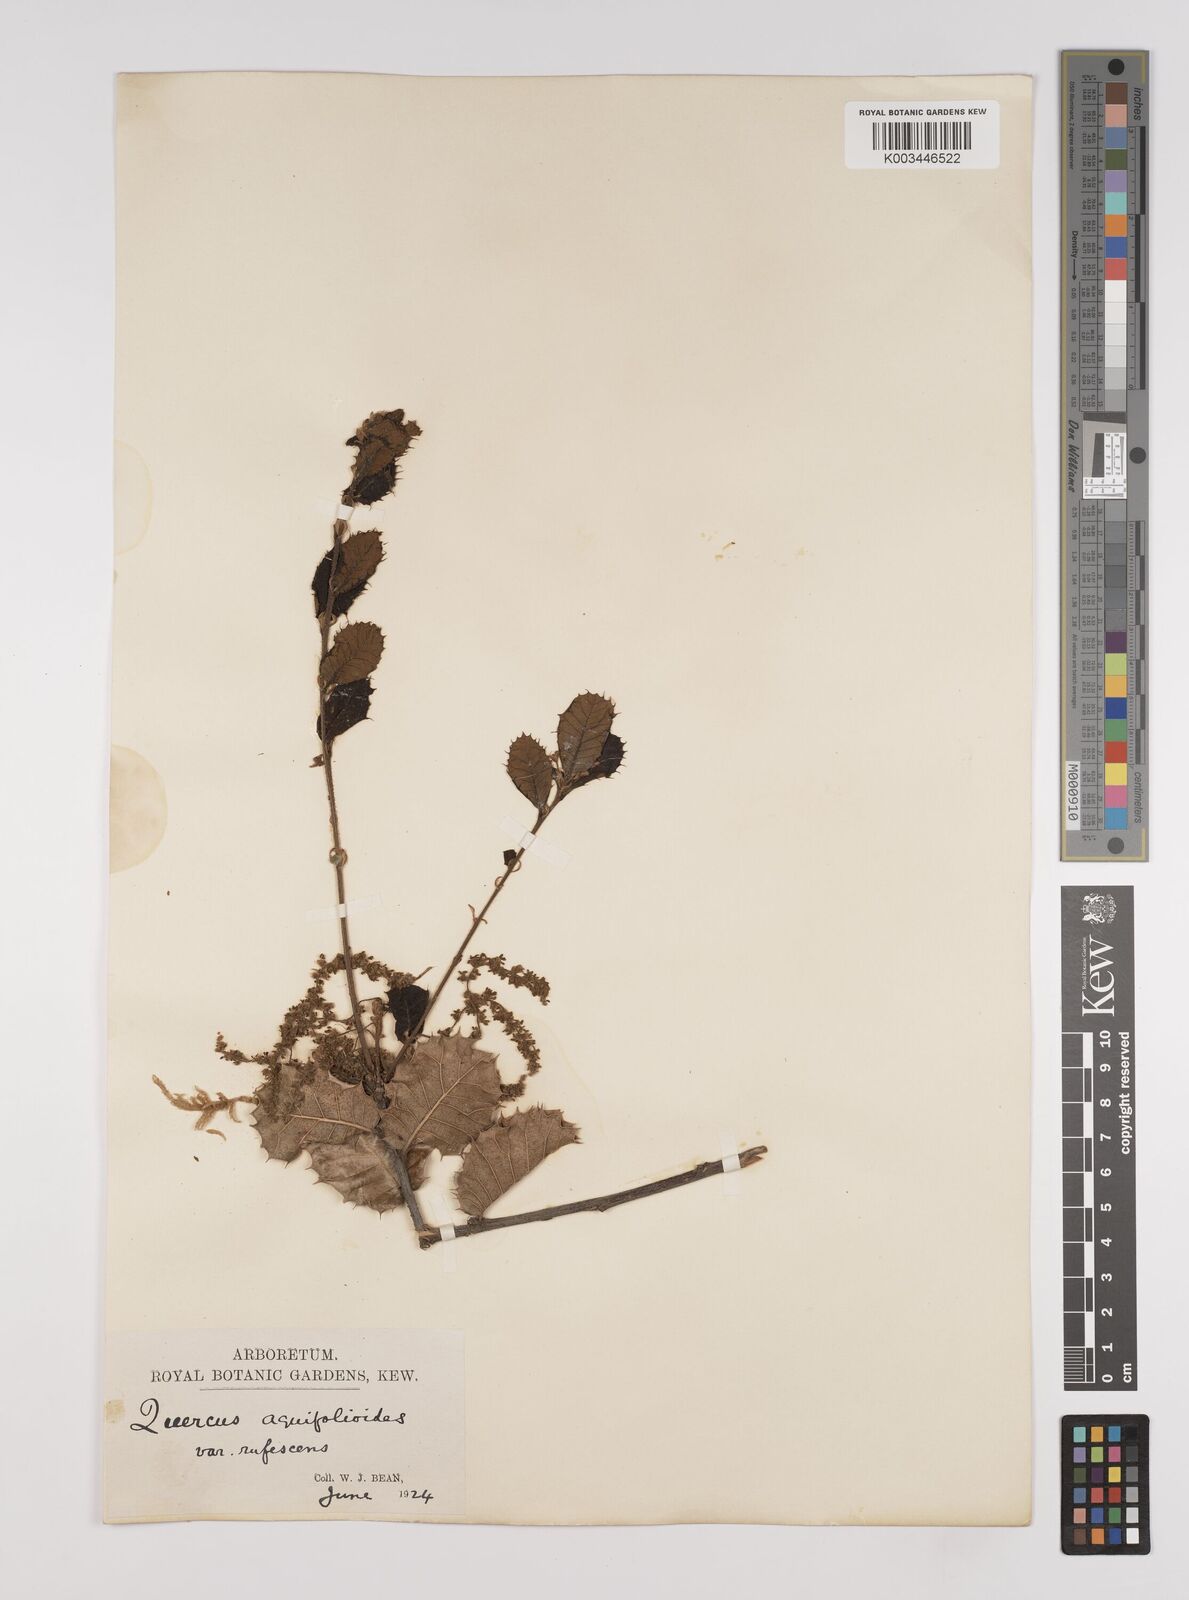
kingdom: Plantae
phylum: Tracheophyta
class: Magnoliopsida
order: Fagales
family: Fagaceae
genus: Quercus
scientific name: Quercus aquifolioides
